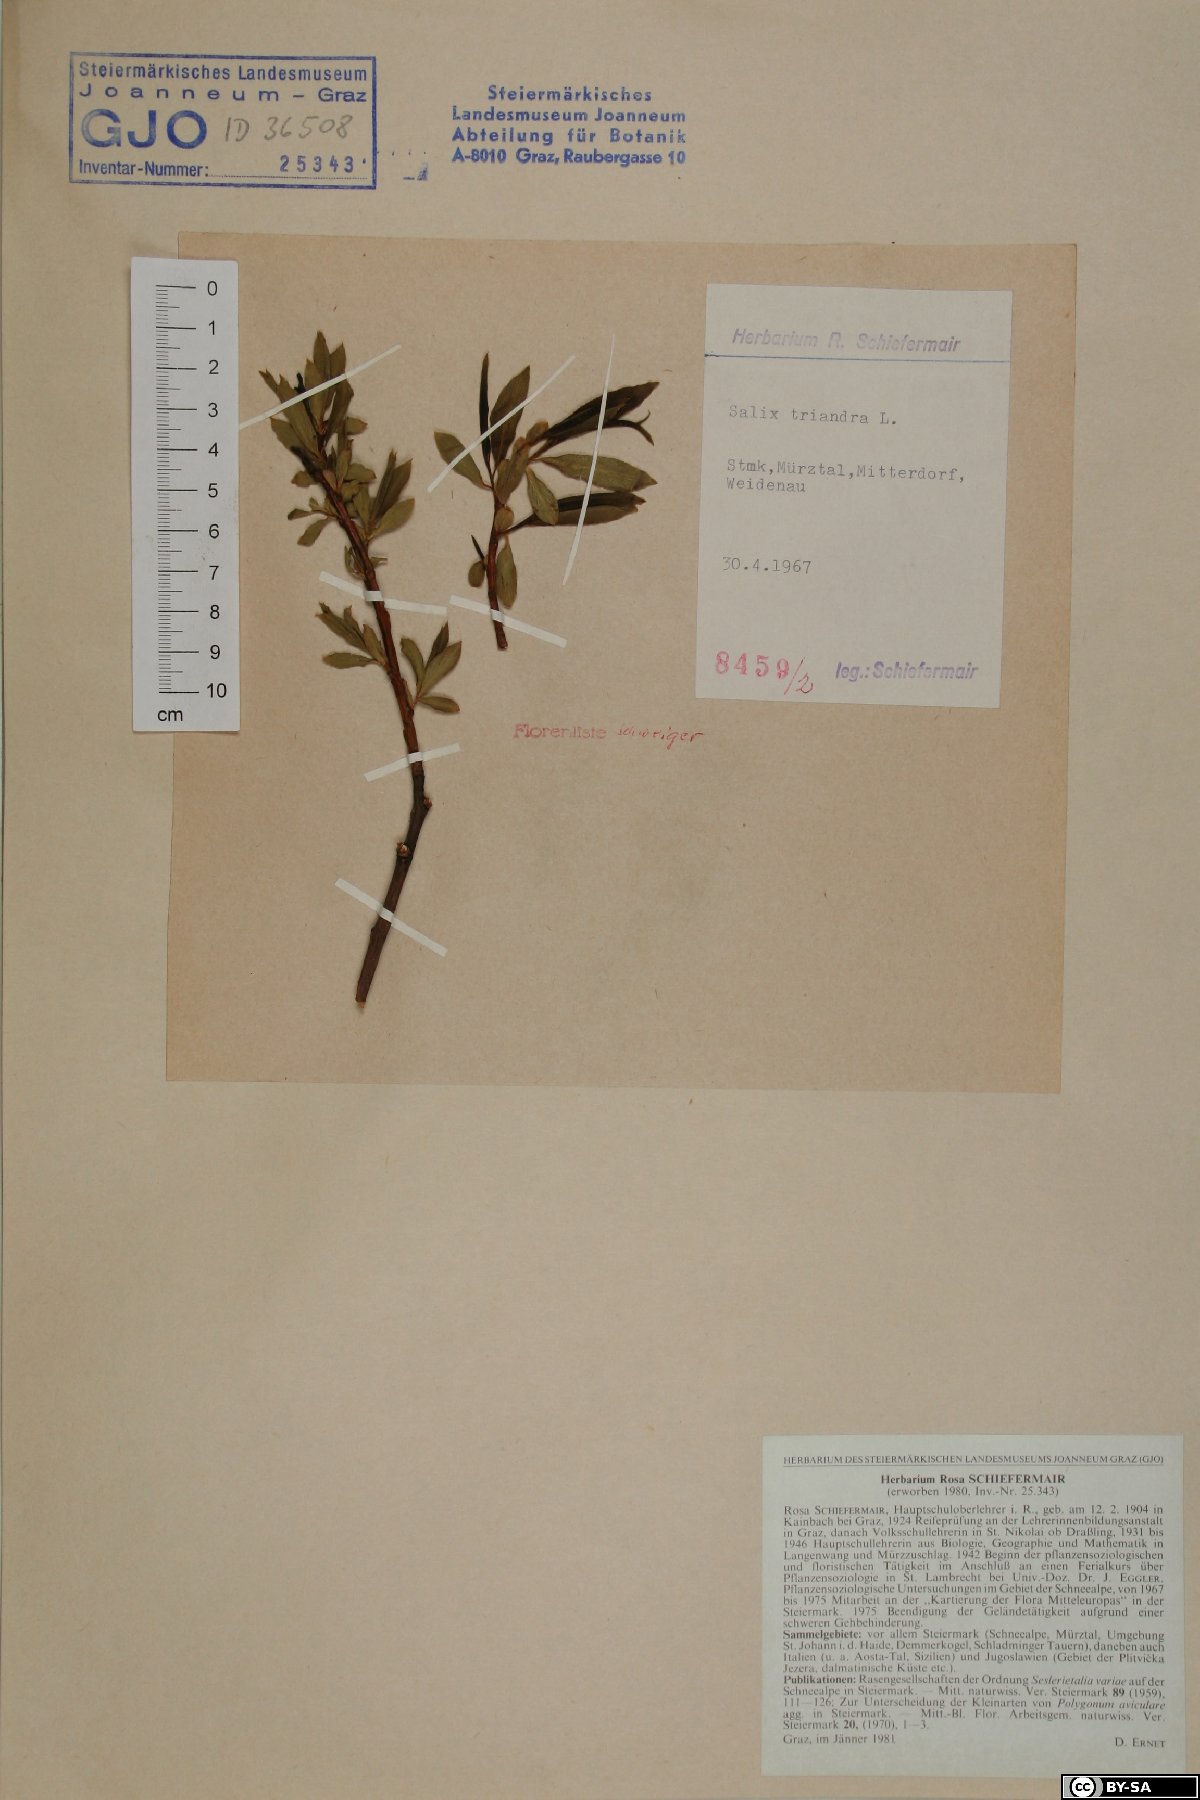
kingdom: Plantae
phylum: Tracheophyta
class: Magnoliopsida
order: Malpighiales
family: Salicaceae
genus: Salix
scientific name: Salix triandra
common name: Almond willow
